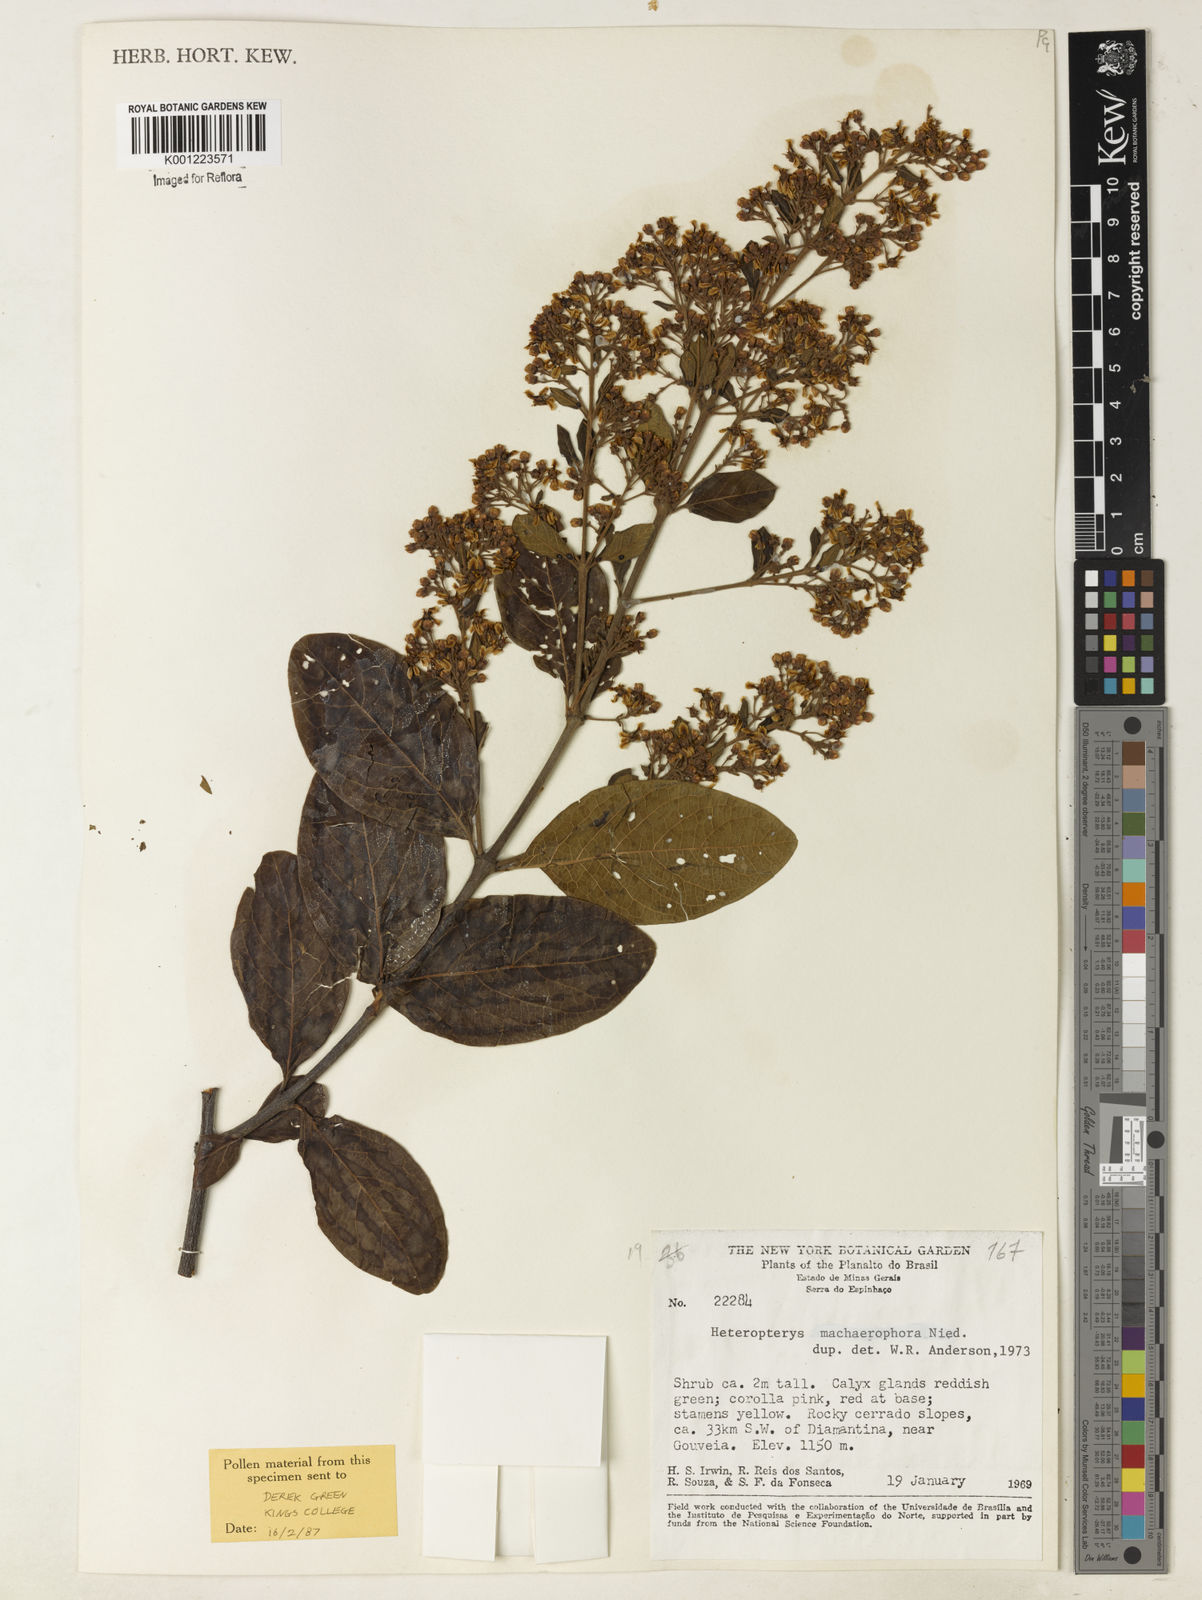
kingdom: Plantae
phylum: Tracheophyta
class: Magnoliopsida
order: Malpighiales
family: Malpighiaceae
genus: Heteropterys
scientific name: Heteropterys
